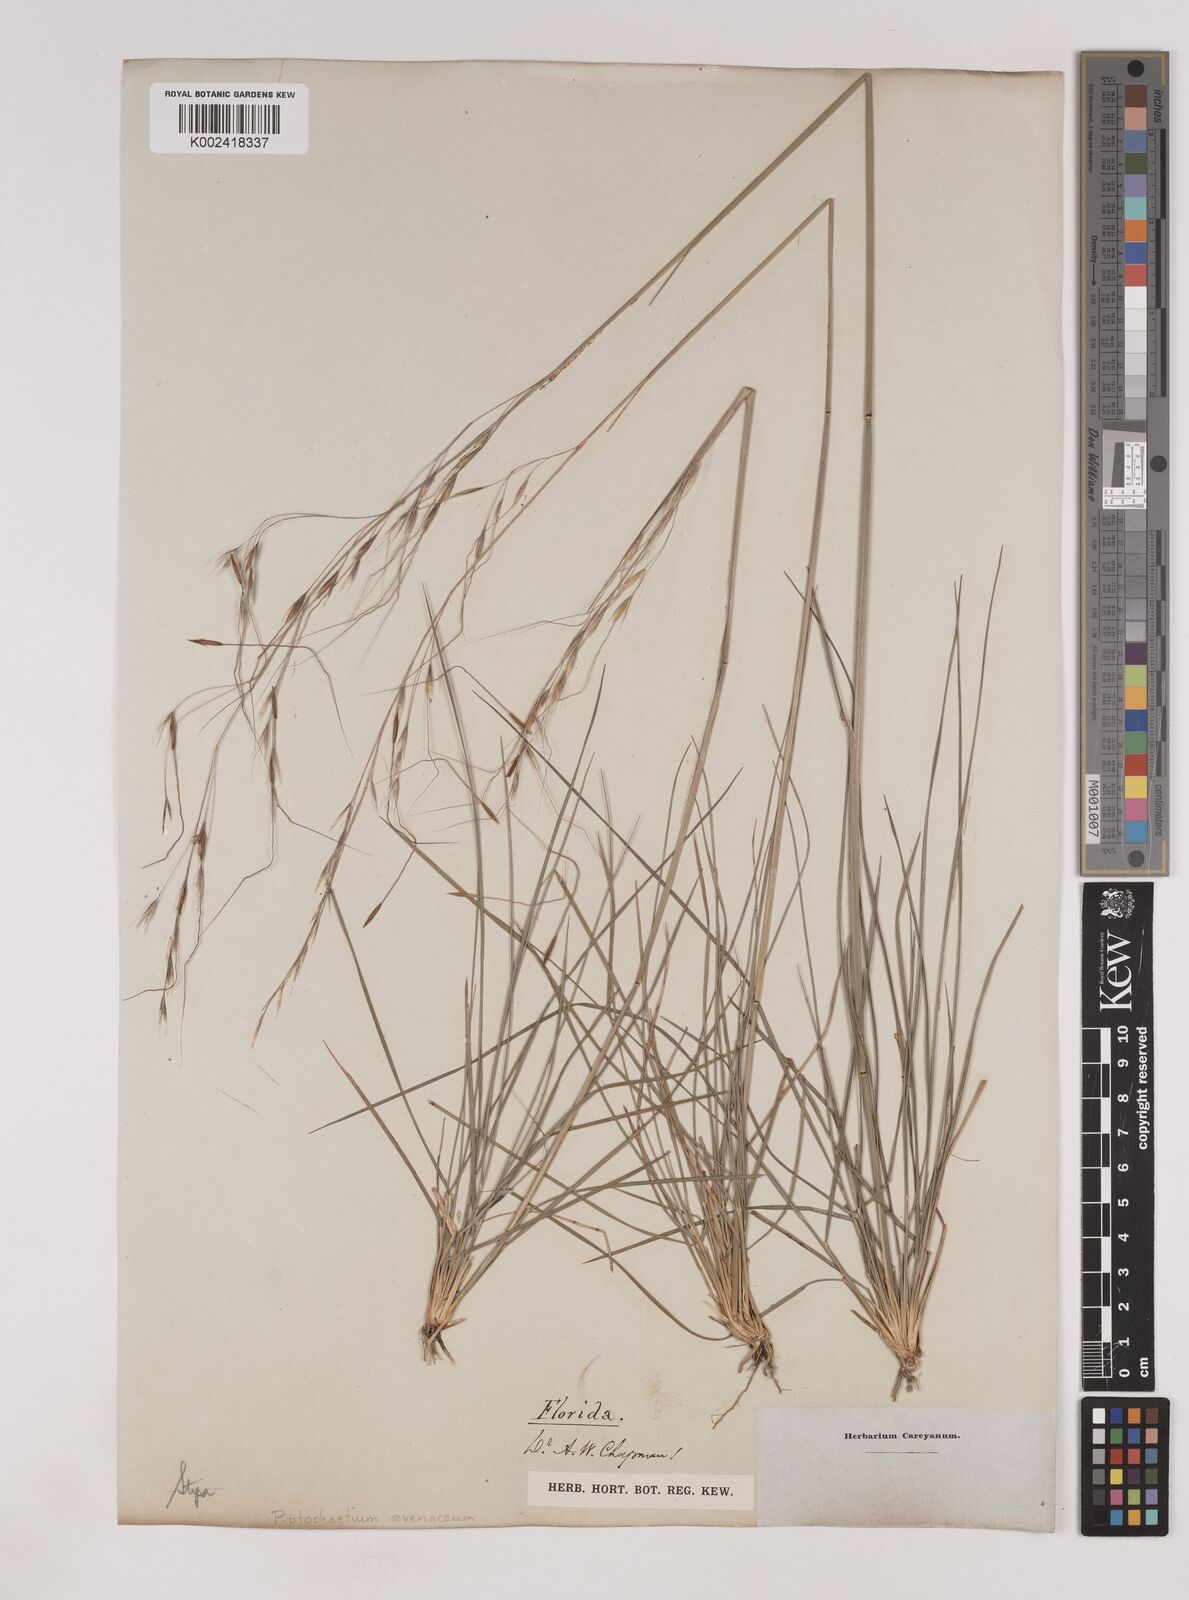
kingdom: Plantae
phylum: Tracheophyta
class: Liliopsida
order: Poales
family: Poaceae
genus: Piptochaetium
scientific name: Piptochaetium avenaceum
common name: Black bunchgrass
